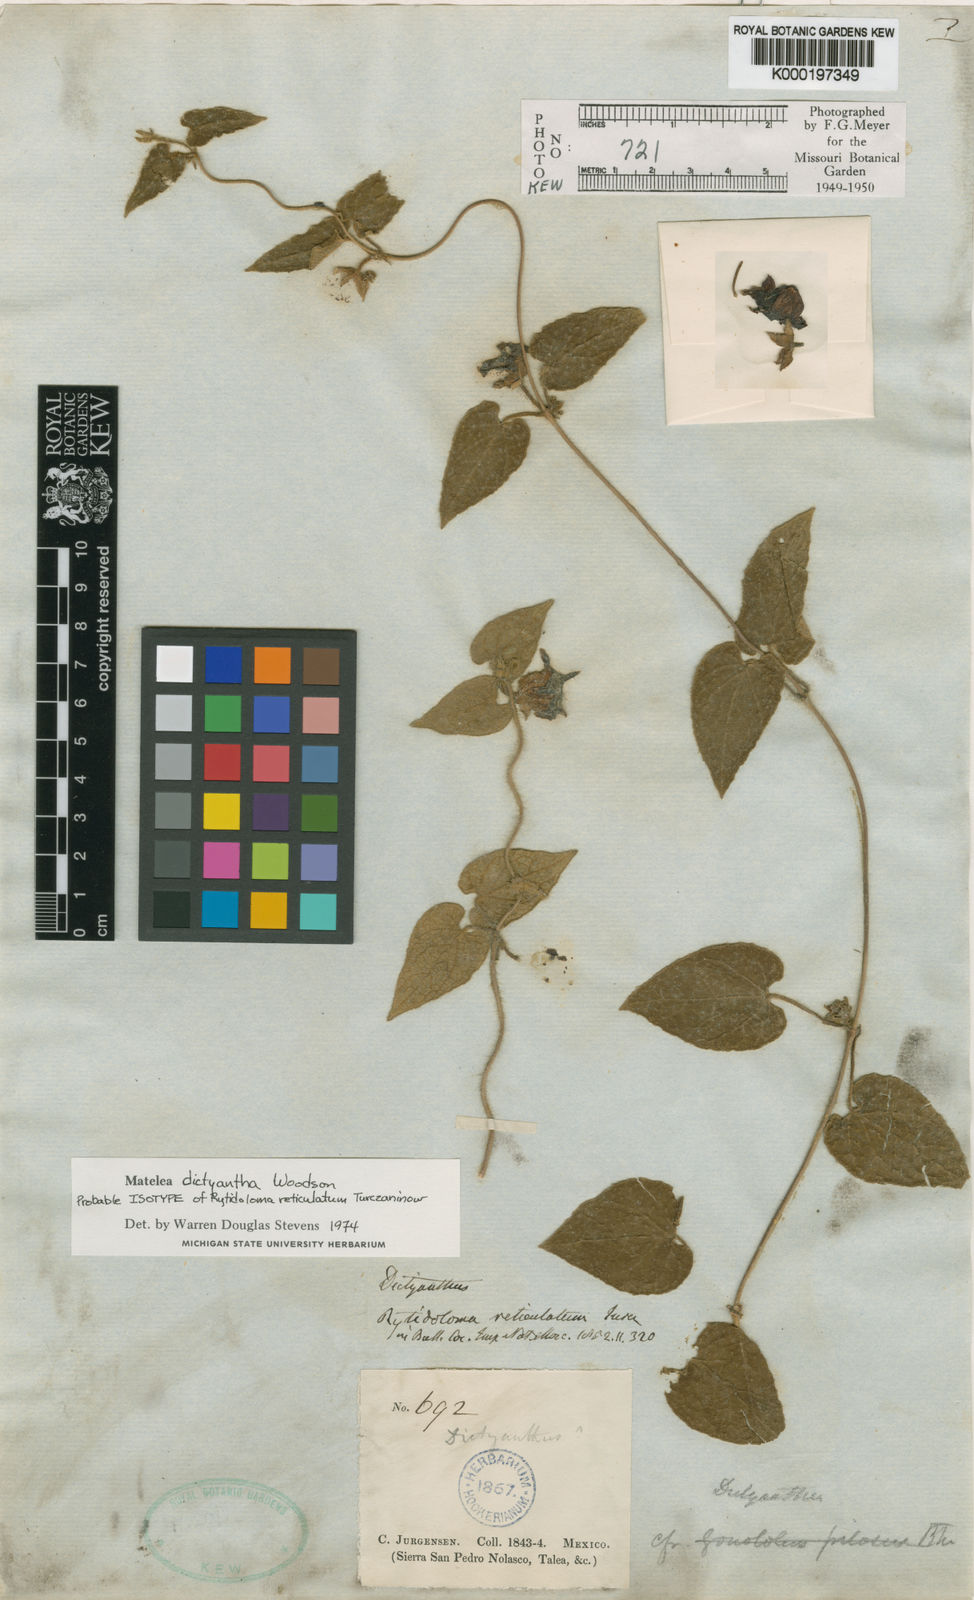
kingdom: Plantae
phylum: Tracheophyta
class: Magnoliopsida
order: Gentianales
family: Apocynaceae
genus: Dictyanthus
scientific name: Dictyanthus
